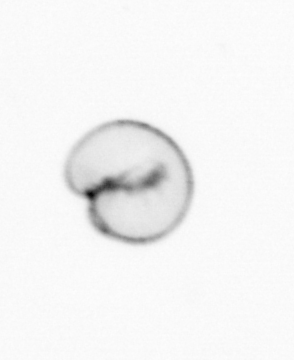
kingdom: Chromista
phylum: Myzozoa
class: Dinophyceae
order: Noctilucales
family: Noctilucaceae
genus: Noctiluca
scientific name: Noctiluca scintillans
